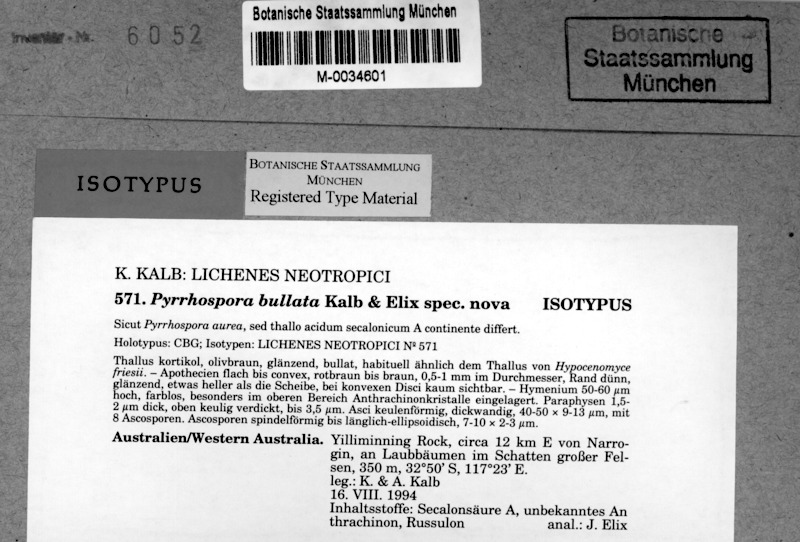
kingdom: Fungi
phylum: Ascomycota
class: Lecanoromycetes
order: Lecanorales
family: Ramboldiaceae
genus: Ramboldia
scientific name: Ramboldia bullata
